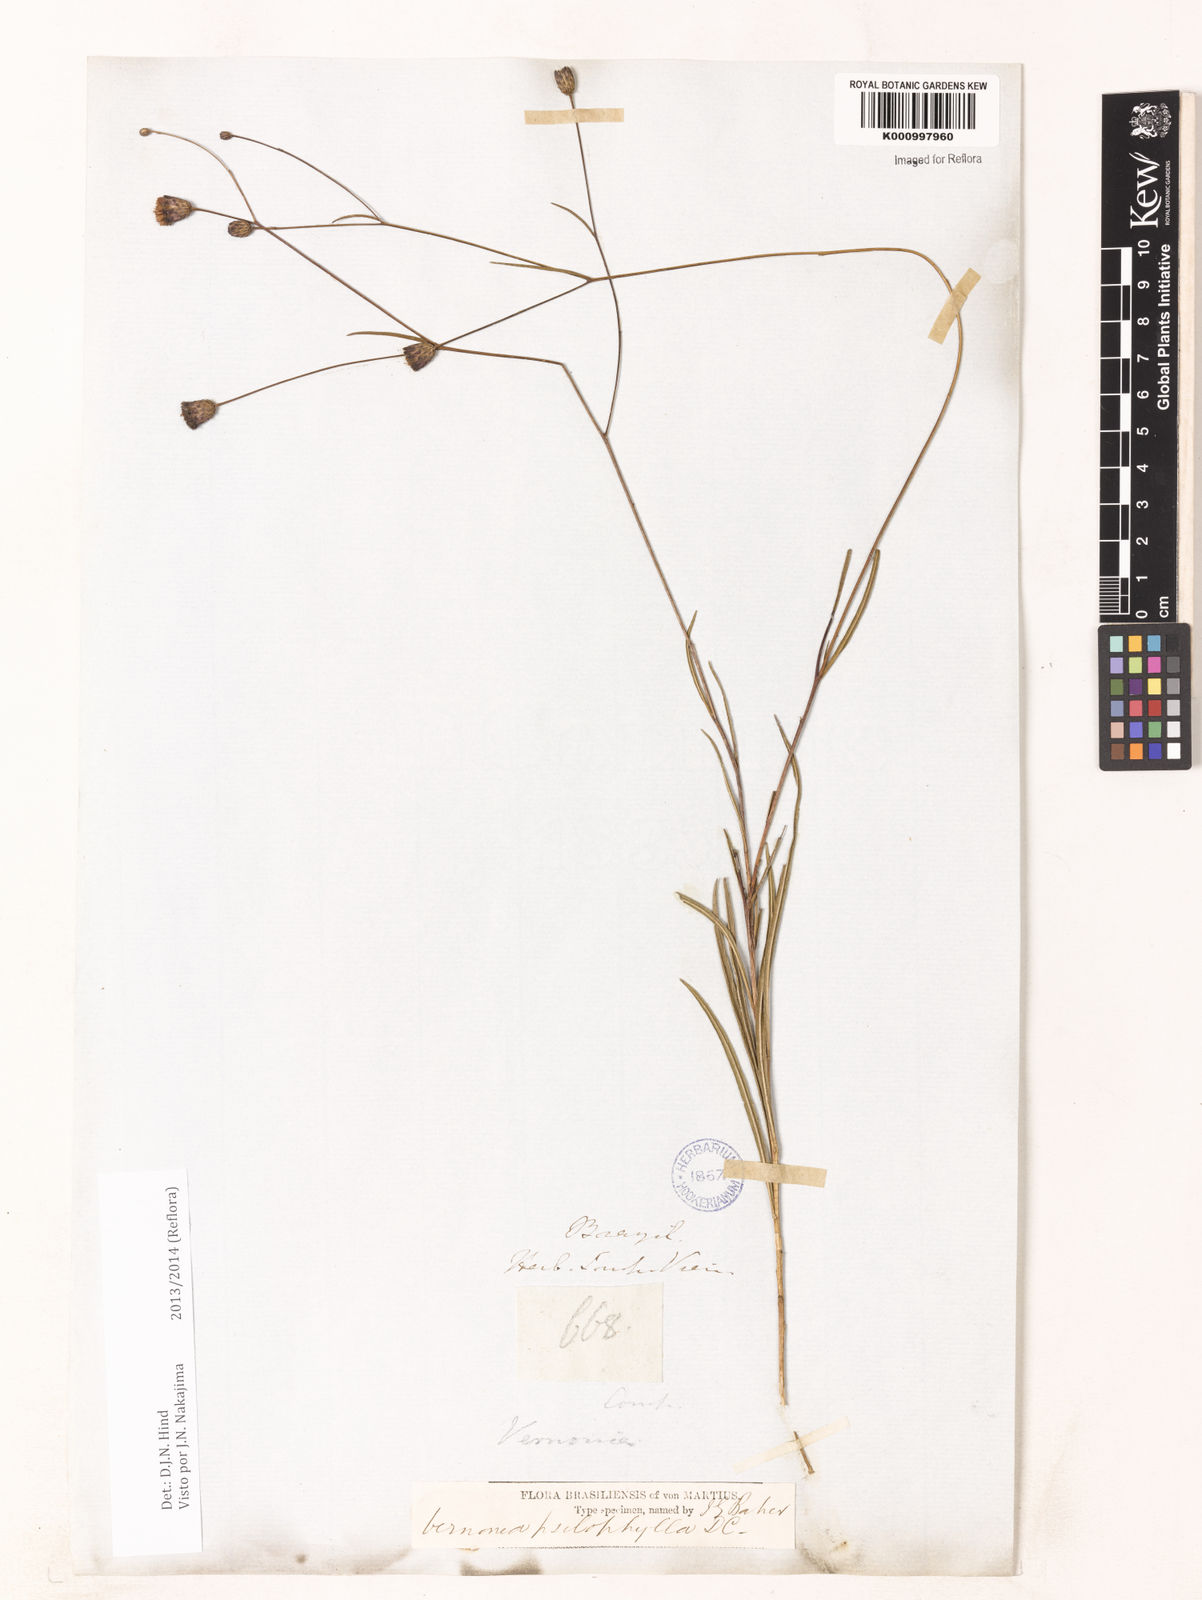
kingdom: Plantae
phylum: Tracheophyta
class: Magnoliopsida
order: Asterales
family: Asteraceae
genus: Lessingianthus
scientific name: Lessingianthus psilophyllus
